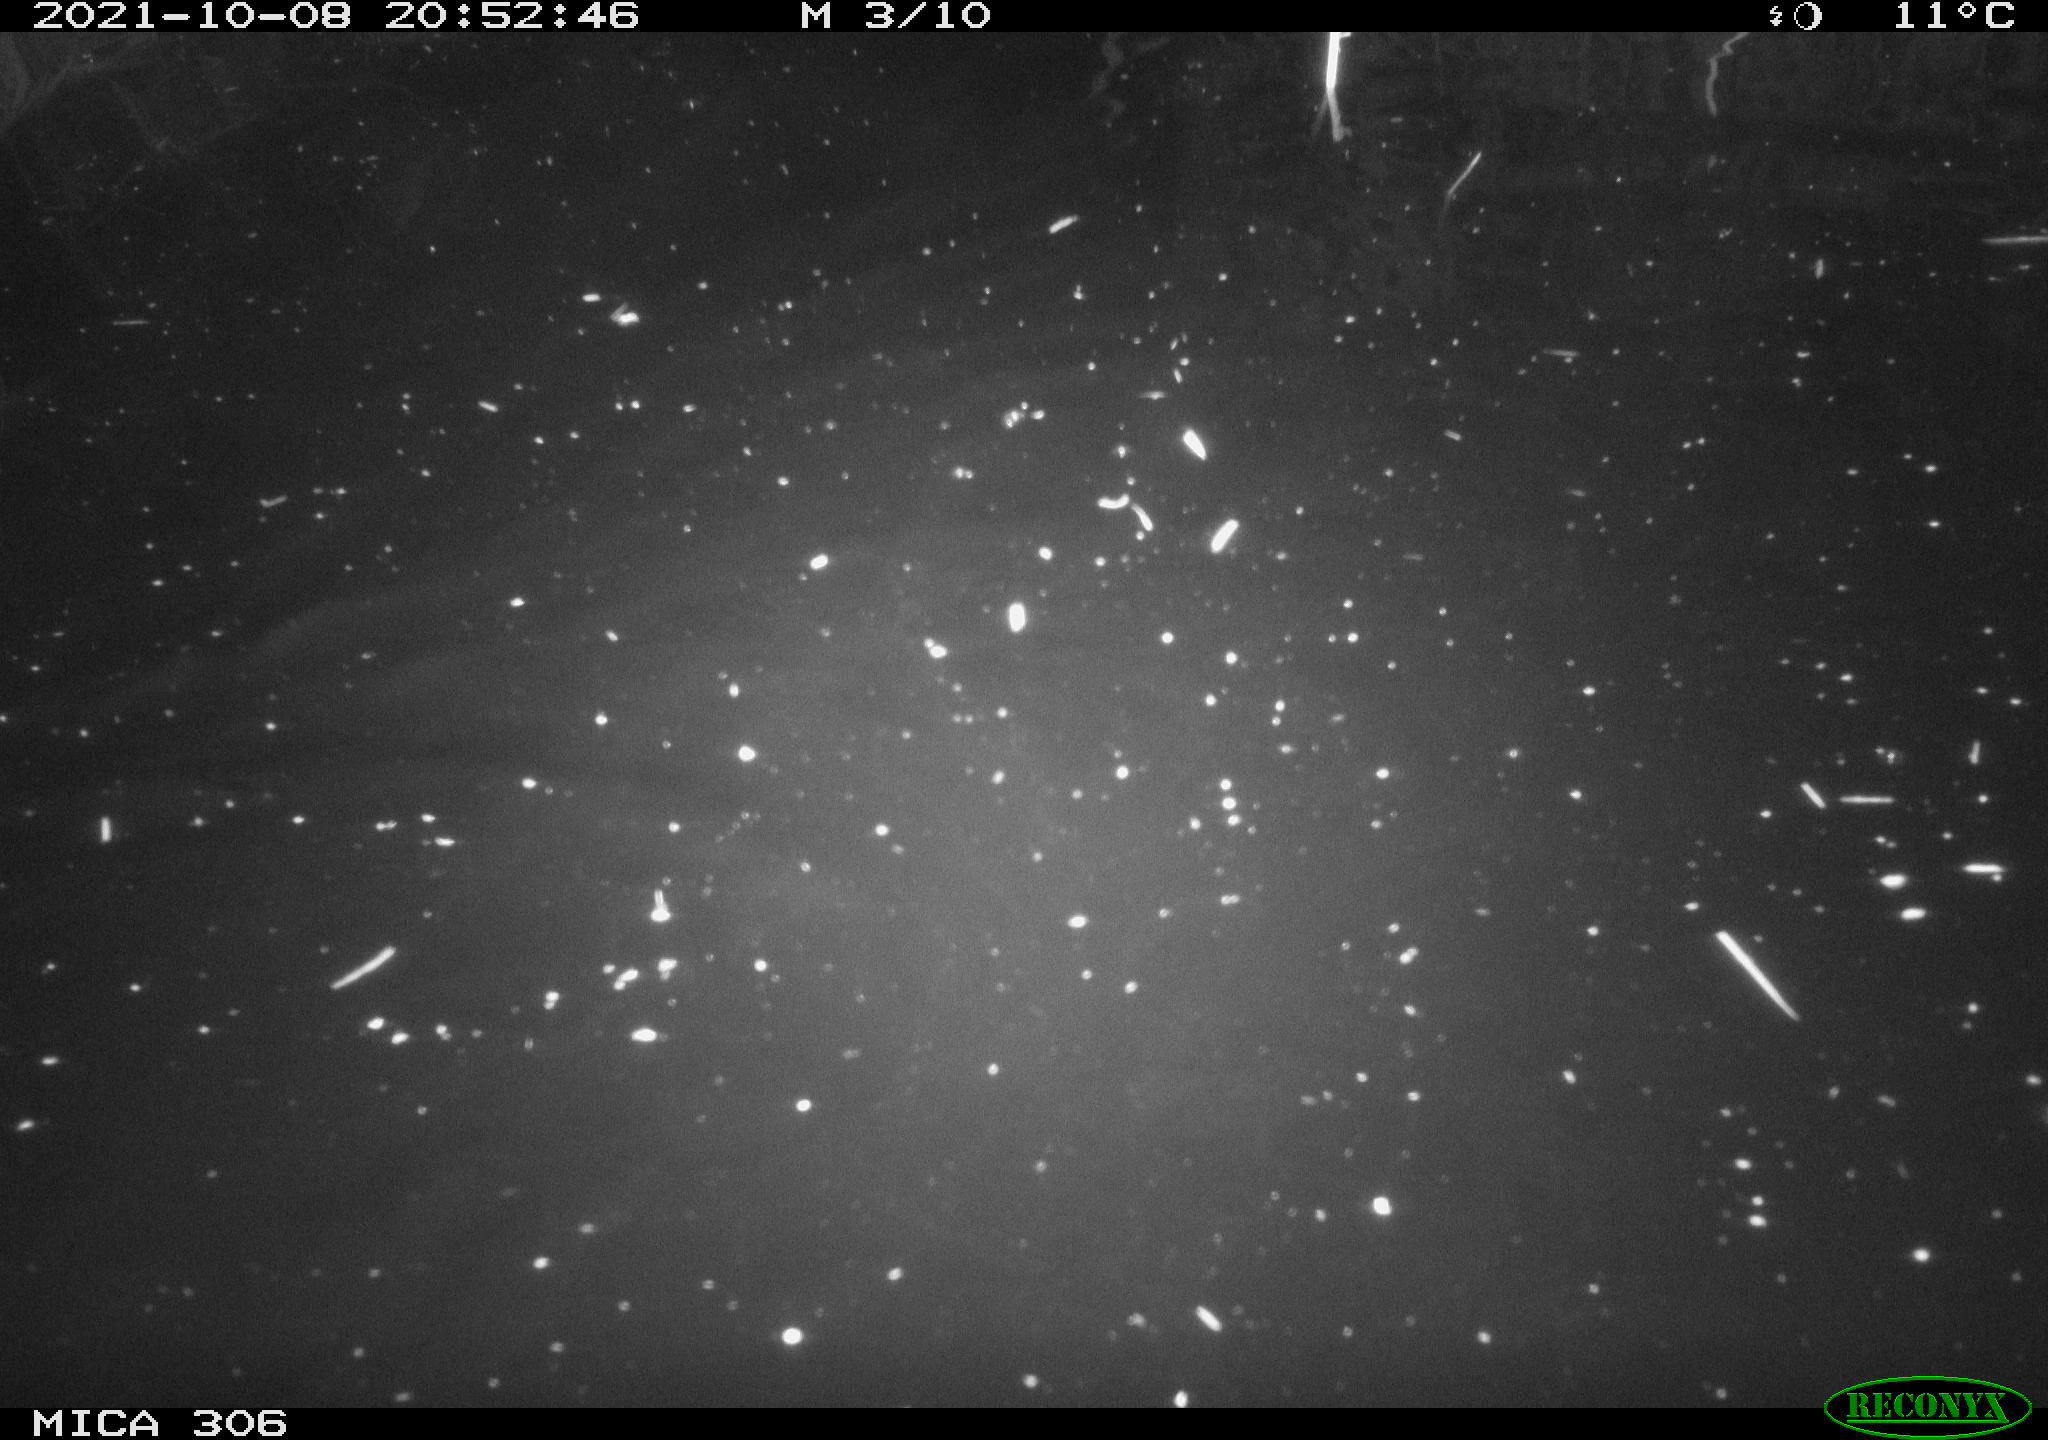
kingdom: Animalia
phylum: Chordata
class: Mammalia
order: Rodentia
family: Cricetidae
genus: Ondatra
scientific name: Ondatra zibethicus
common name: Muskrat
